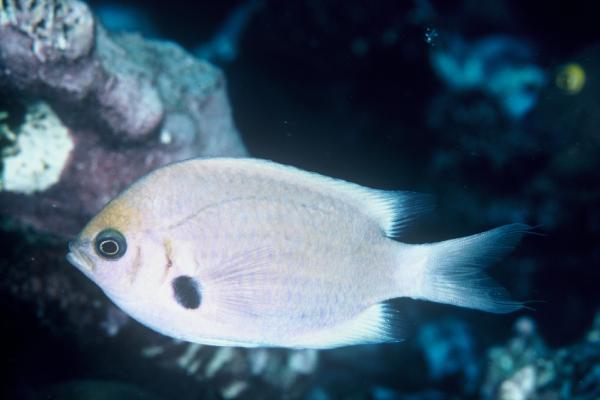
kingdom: Animalia
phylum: Chordata
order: Perciformes
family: Pomacentridae
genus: Chromis
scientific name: Chromis agilis
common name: Bronze reef chromis
